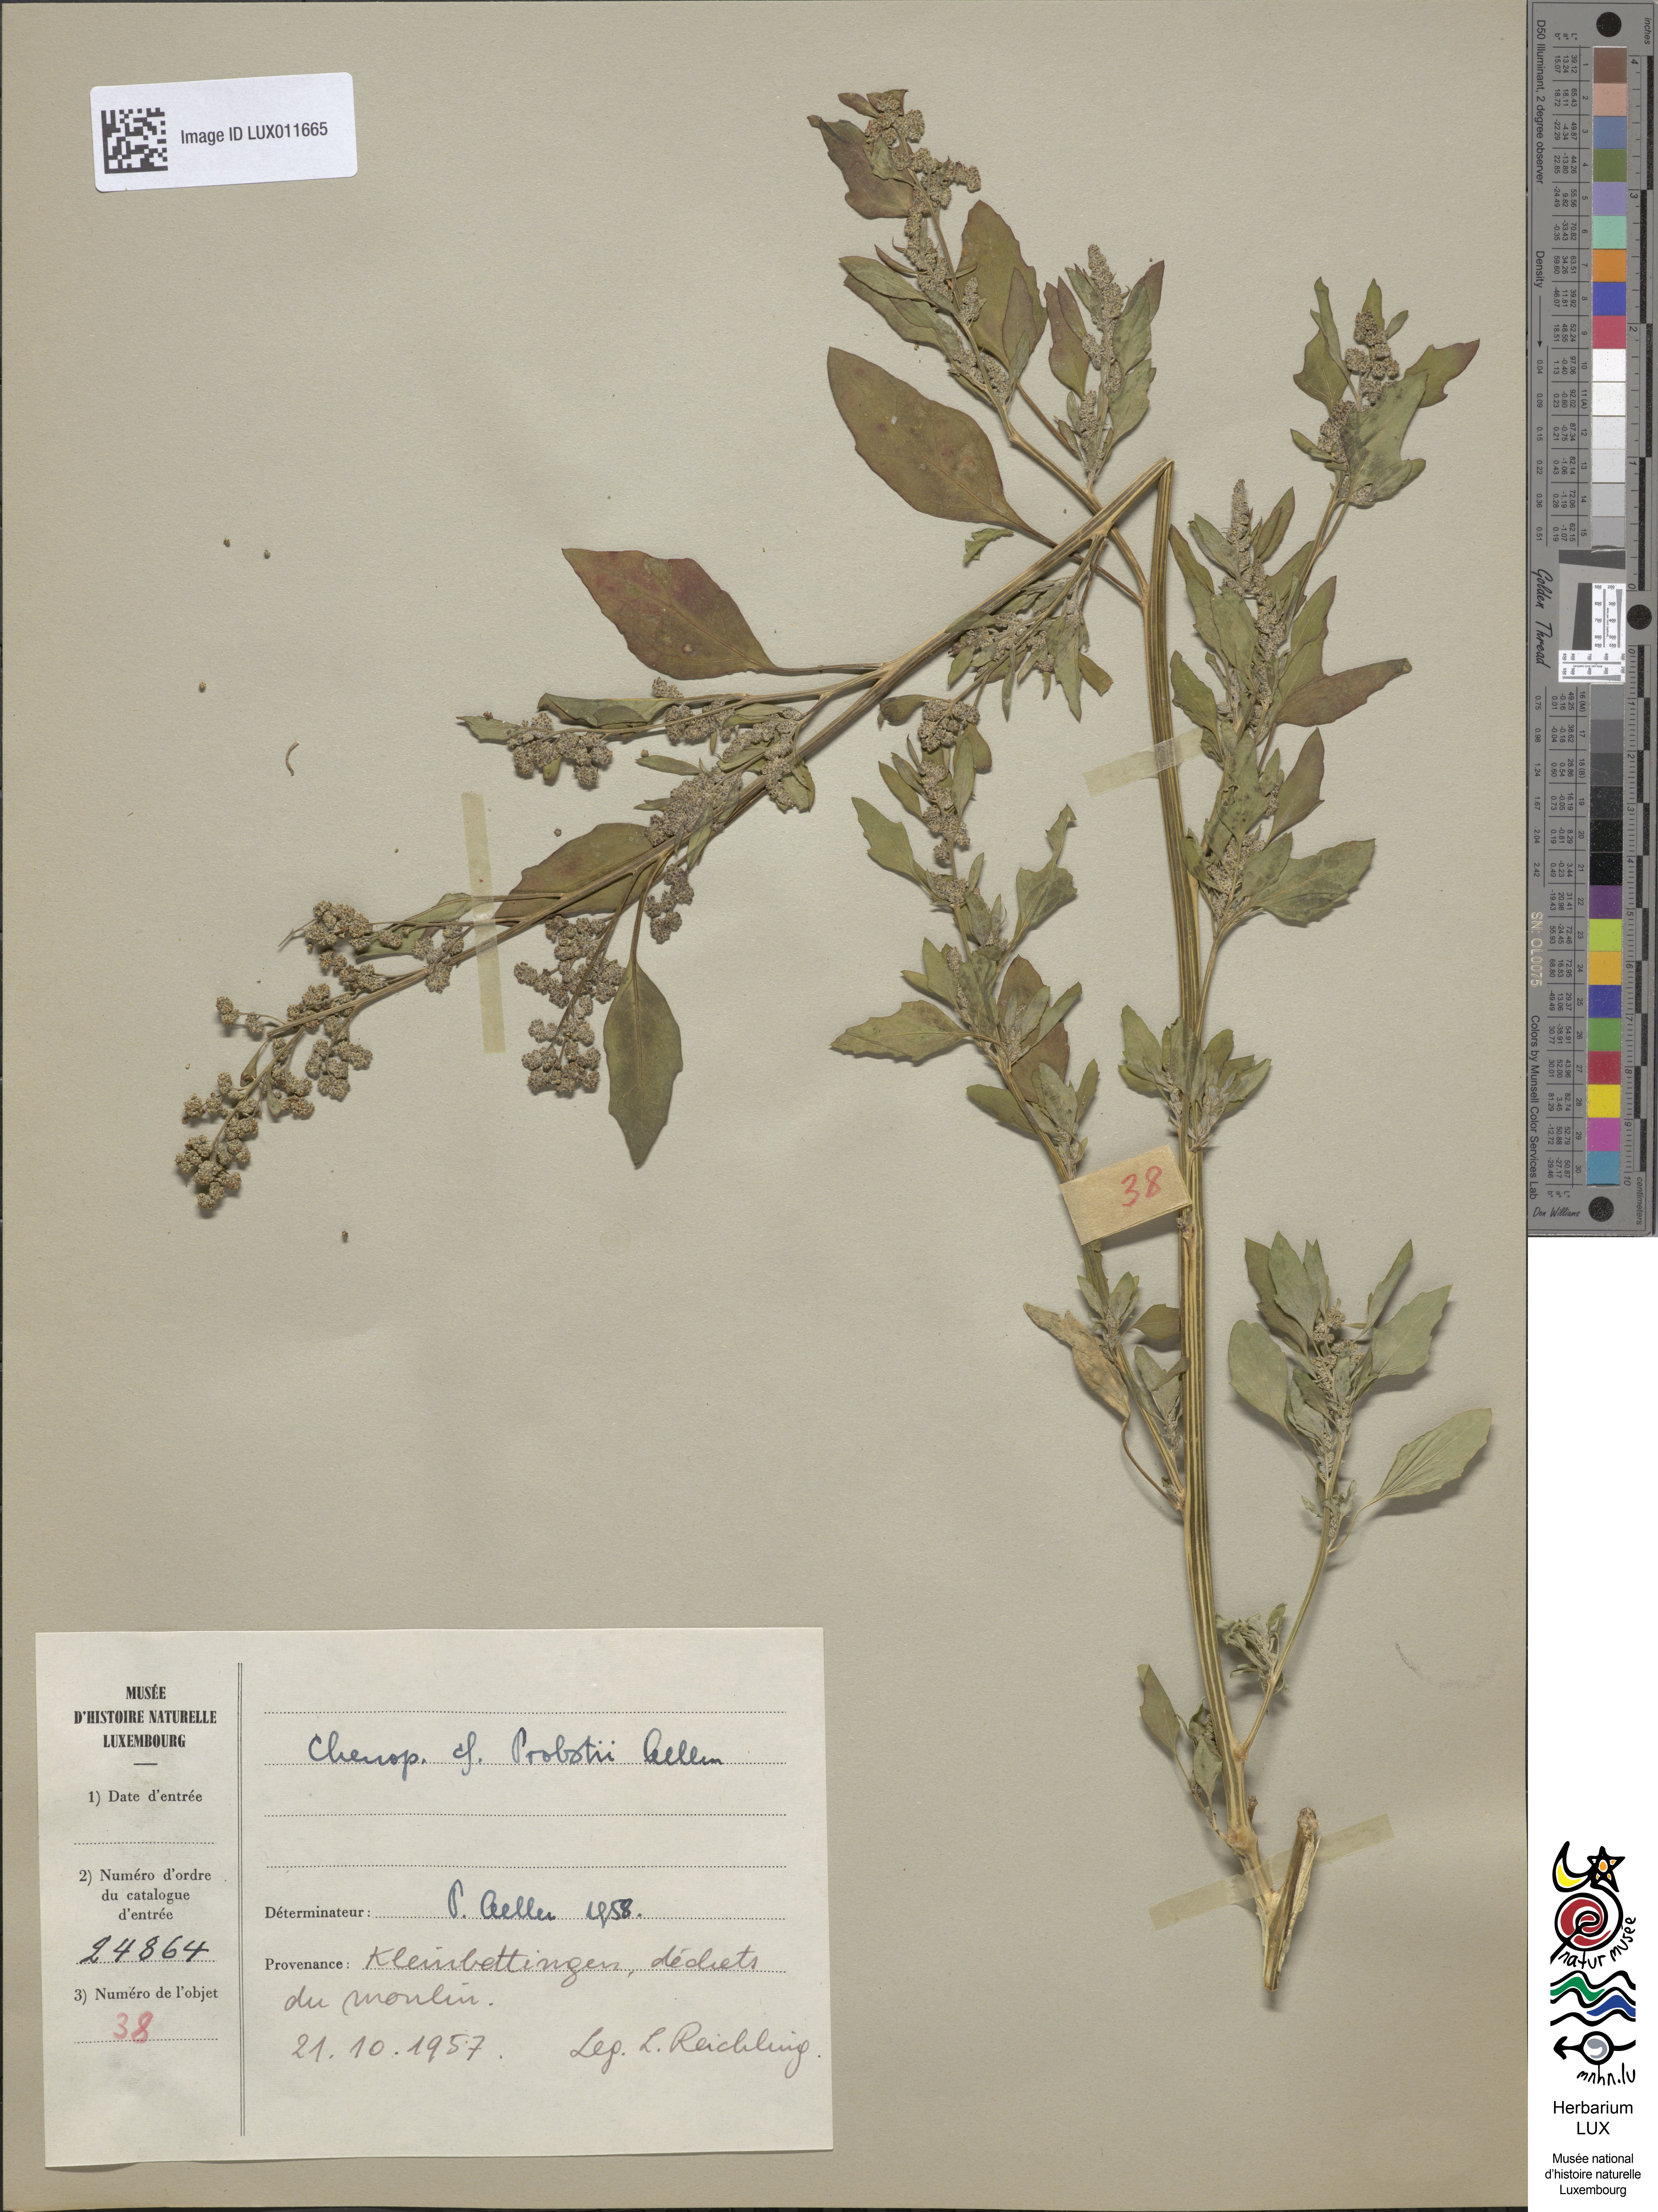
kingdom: Plantae
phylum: Tracheophyta
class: Magnoliopsida
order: Caryophyllales
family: Amaranthaceae
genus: Chenopodium
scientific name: Chenopodium probstii
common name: Probst's goosefoot
